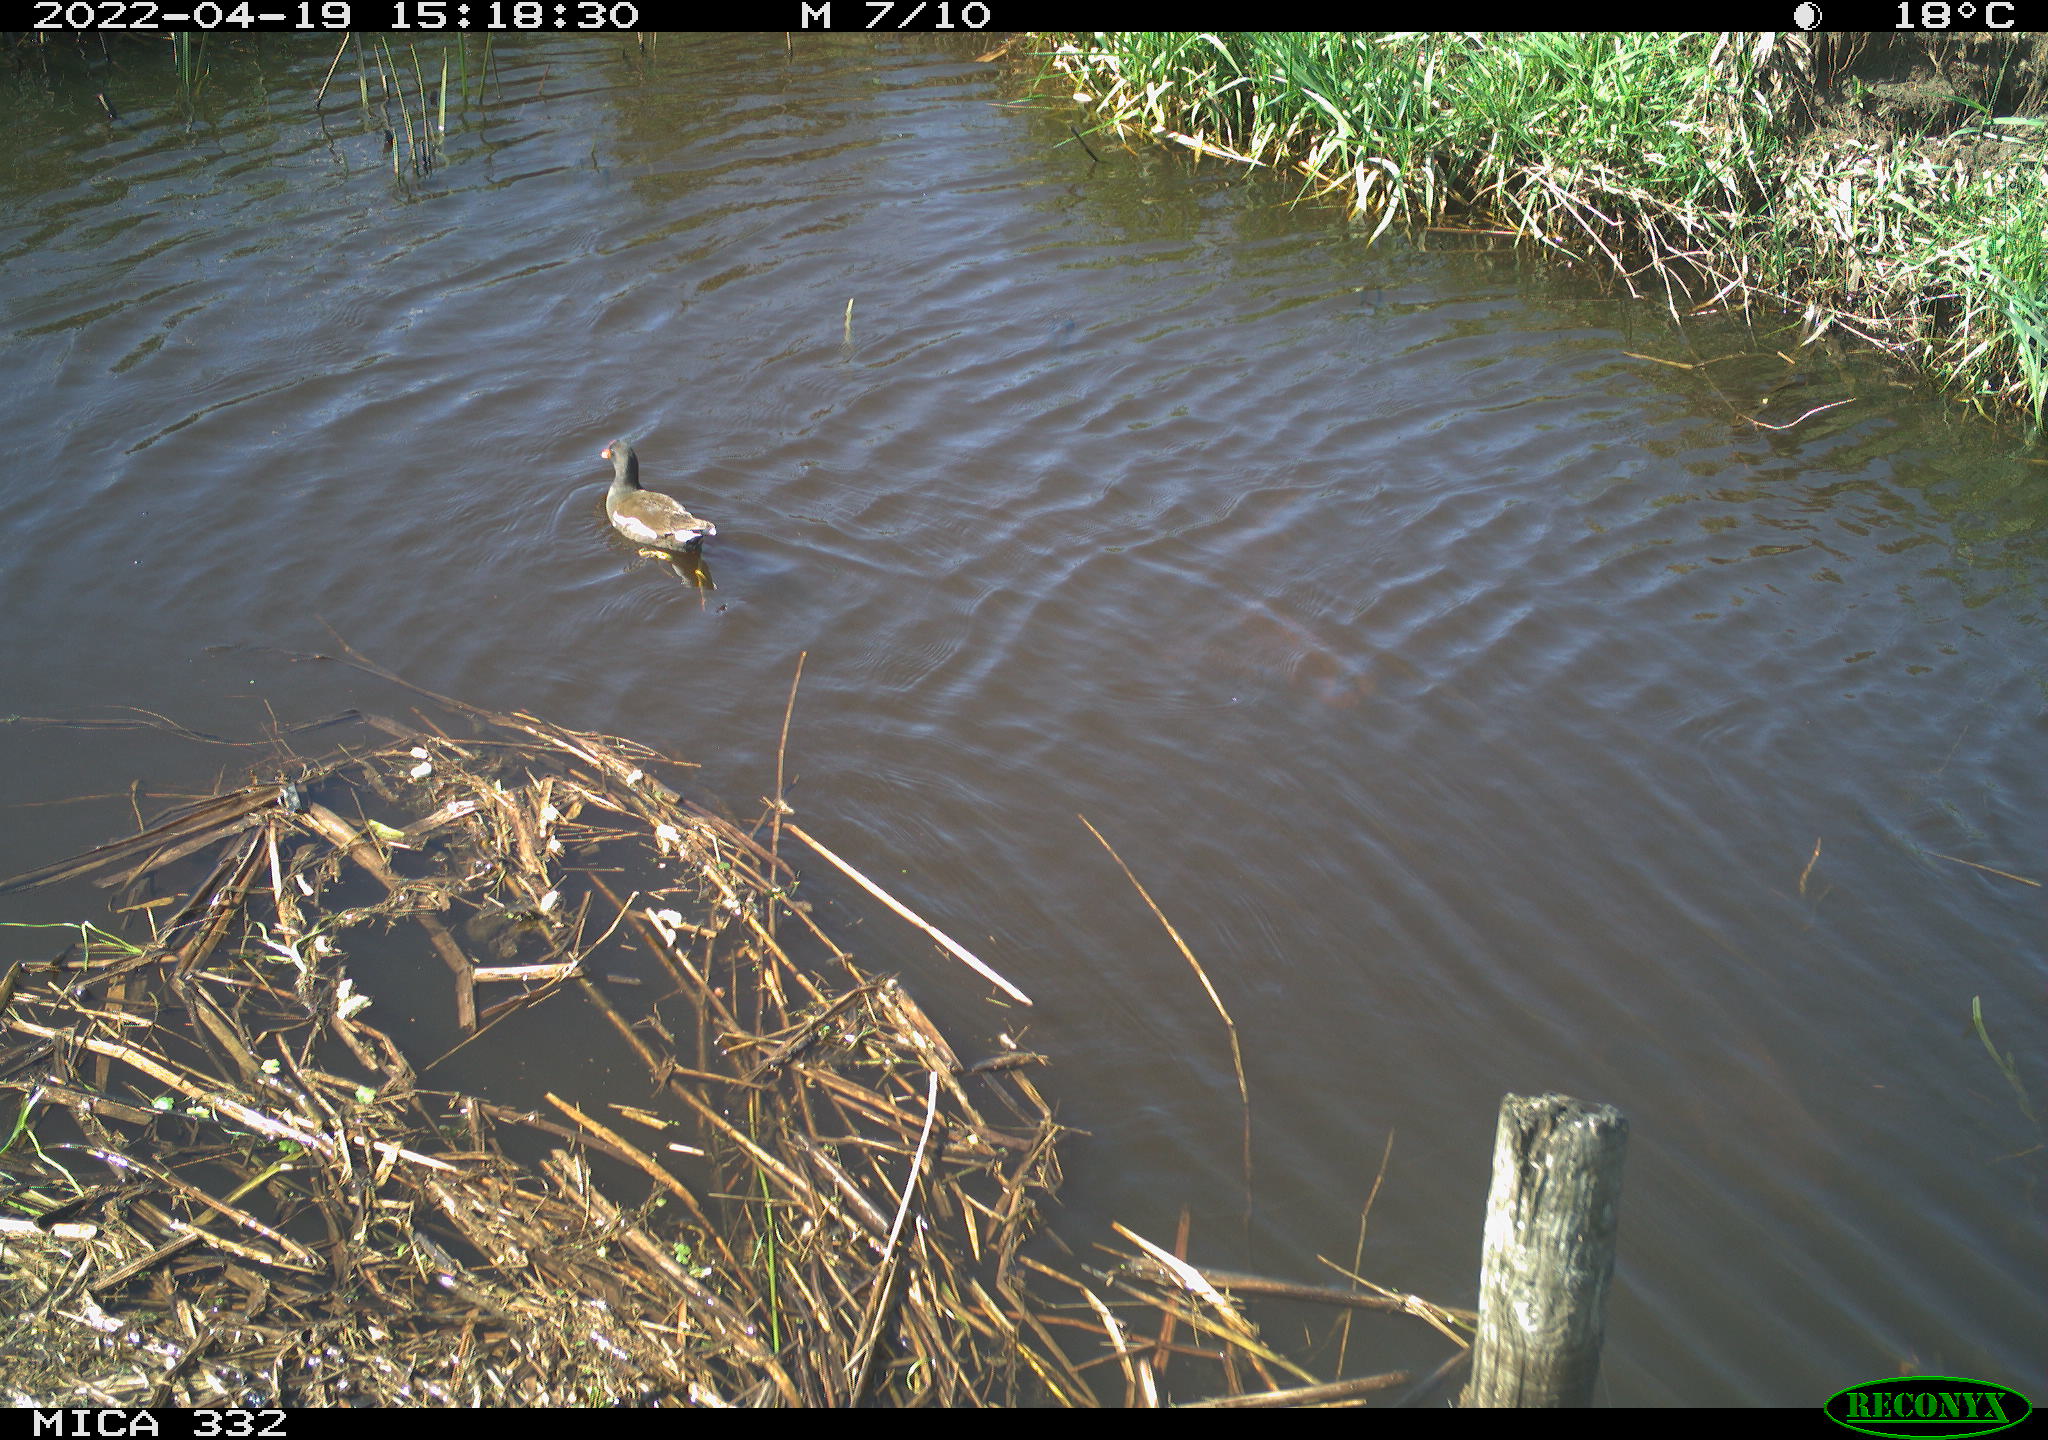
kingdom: Animalia
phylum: Chordata
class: Aves
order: Gruiformes
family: Rallidae
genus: Gallinula
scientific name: Gallinula chloropus
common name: Common moorhen
